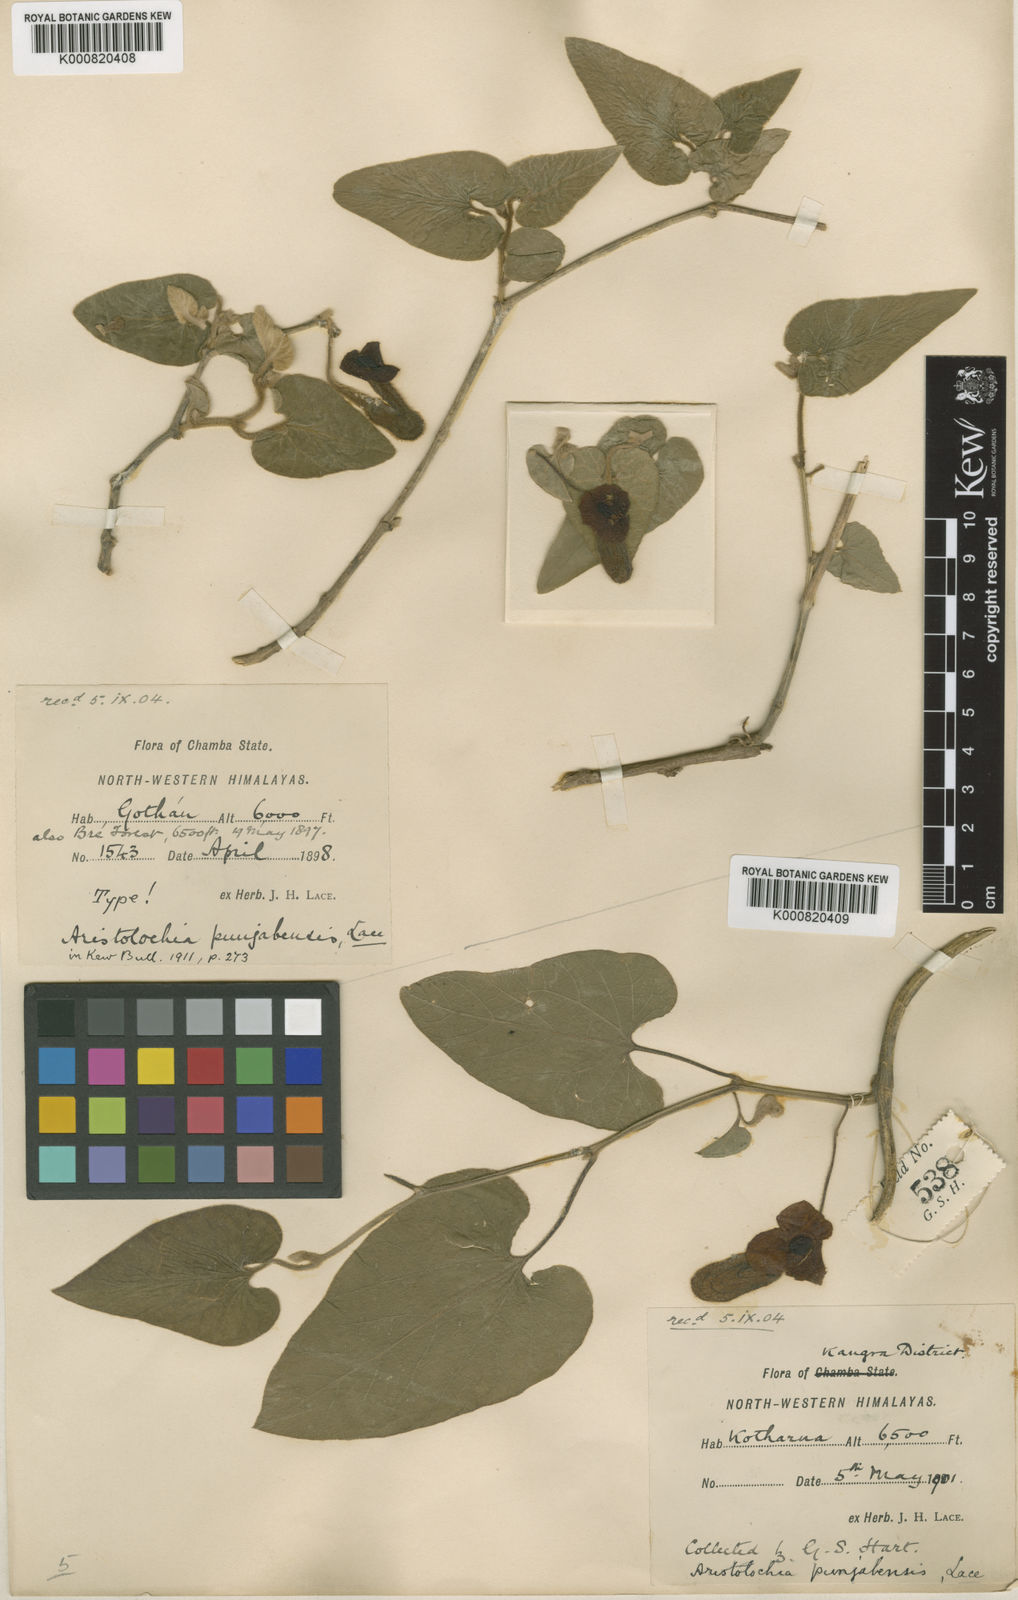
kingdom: Plantae
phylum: Tracheophyta
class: Magnoliopsida
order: Piperales
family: Aristolochiaceae
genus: Isotrema
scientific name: Isotrema
